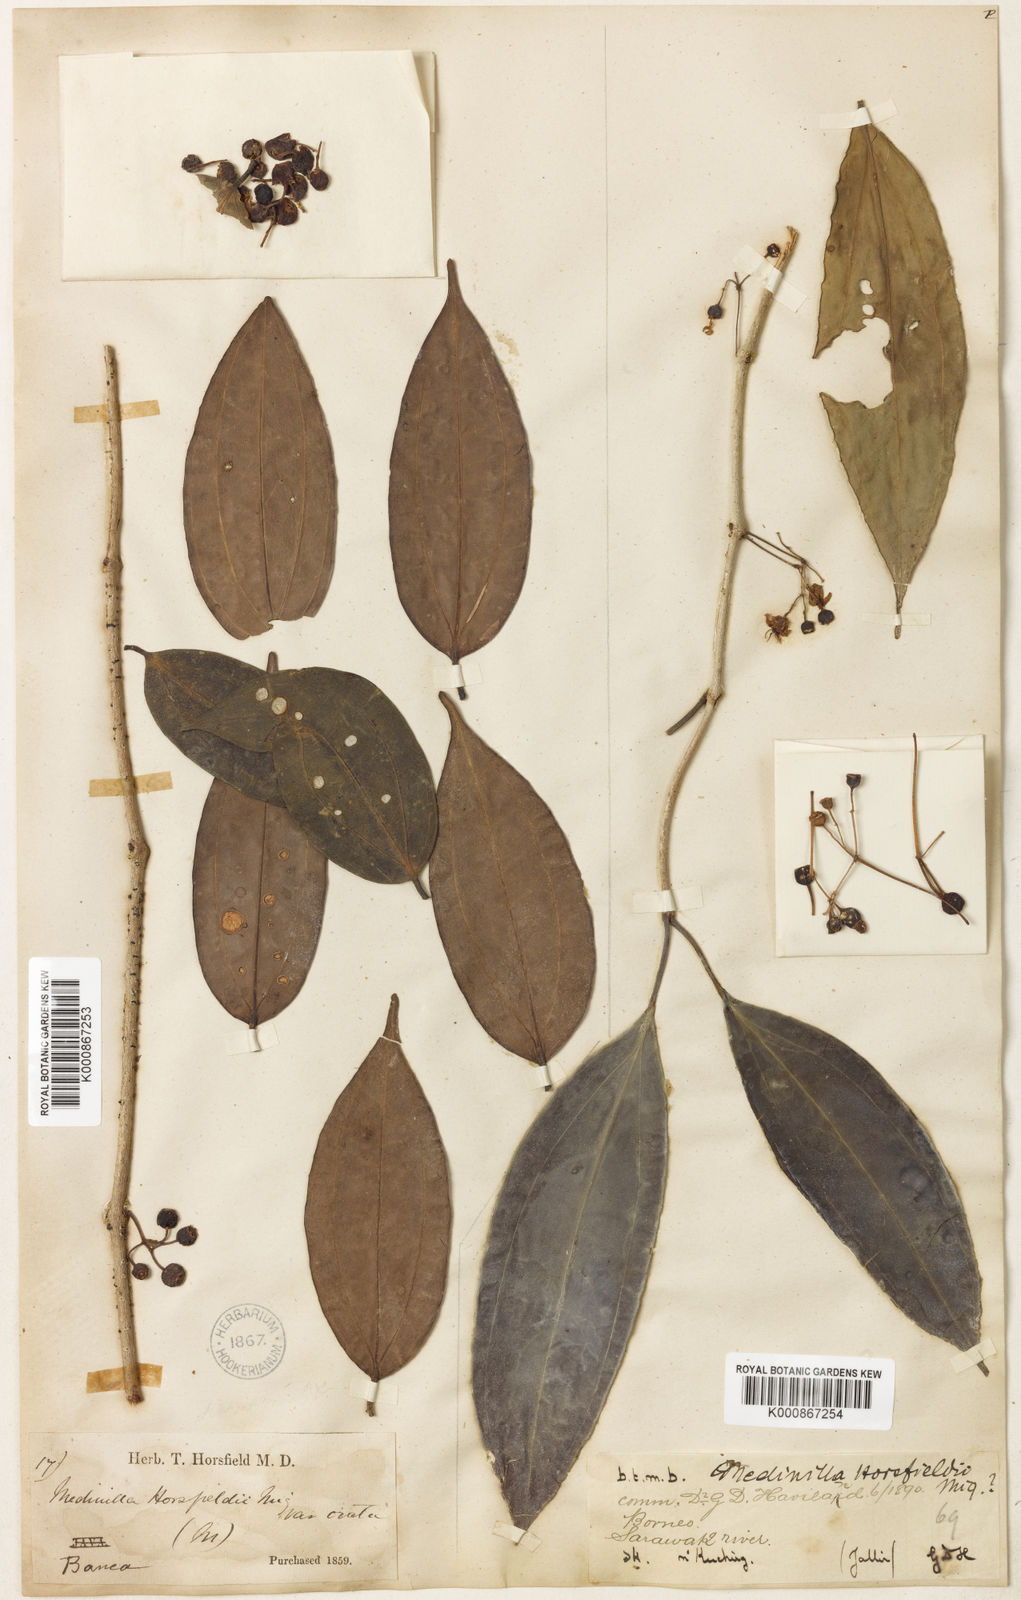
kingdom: Plantae
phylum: Tracheophyta
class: Magnoliopsida
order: Myrtales
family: Melastomataceae
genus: Medinilla
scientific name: Medinilla laurifolia
